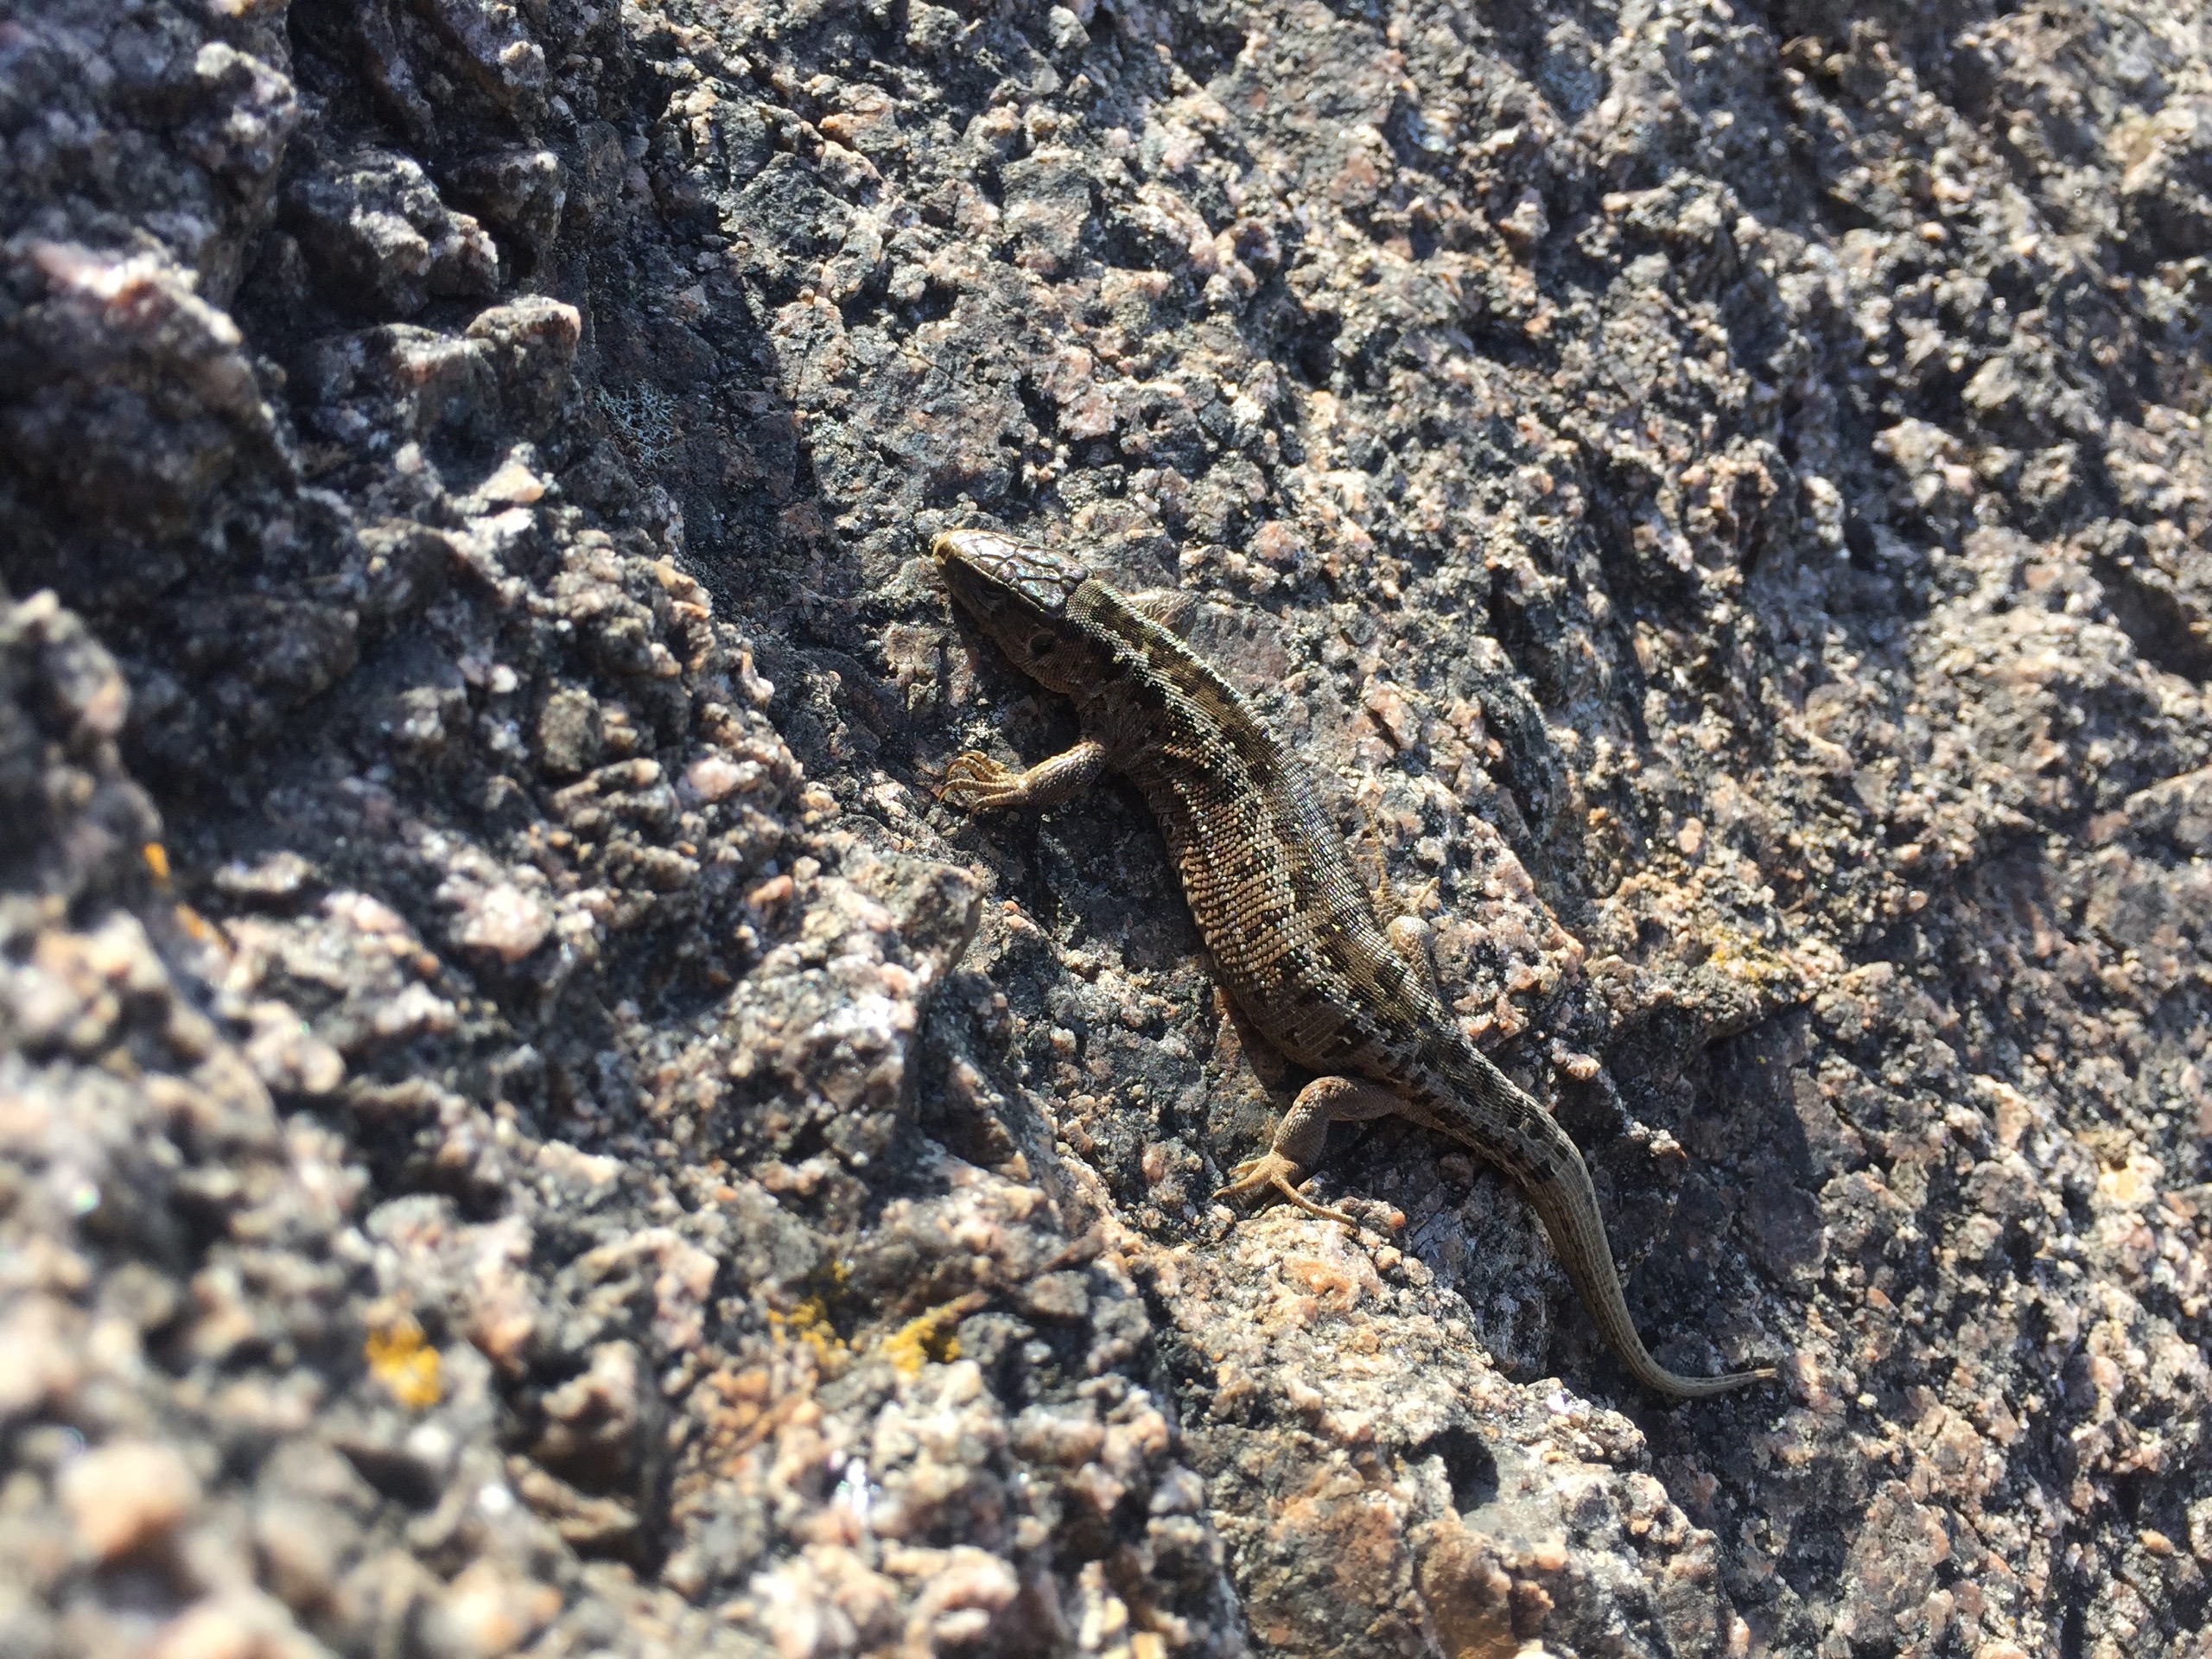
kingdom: Animalia
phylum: Chordata
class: Squamata
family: Lacertidae
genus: Lacerta
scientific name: Lacerta agilis
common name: Markfirben
